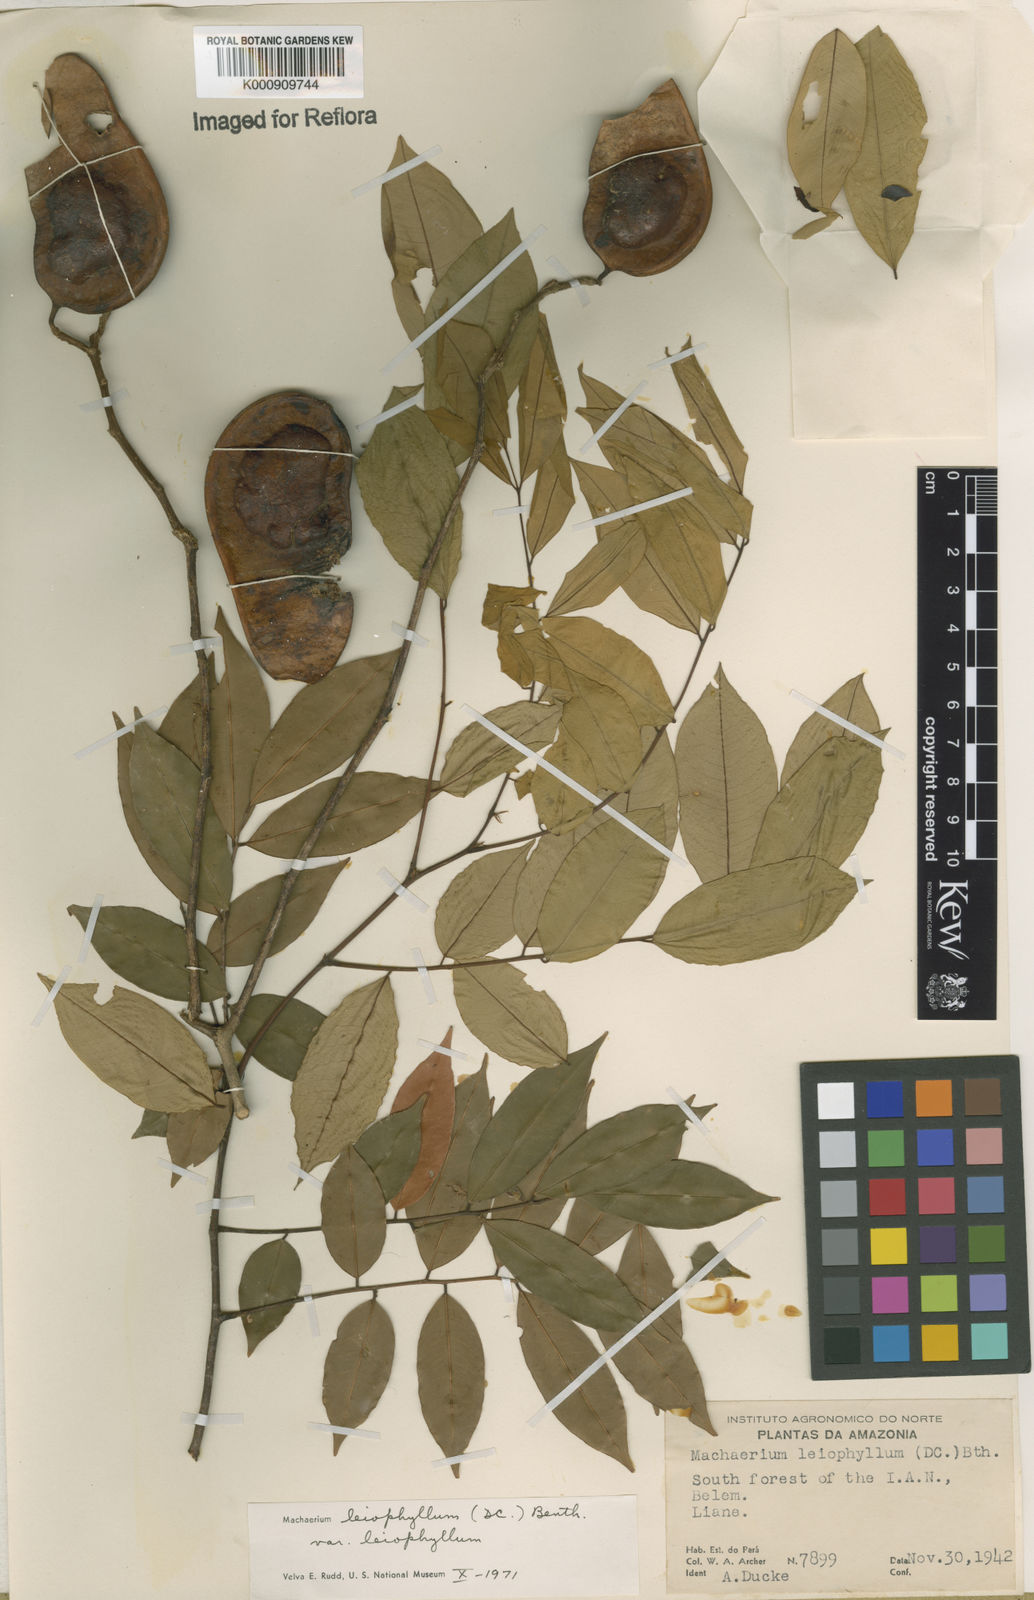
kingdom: Plantae
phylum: Tracheophyta
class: Magnoliopsida
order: Fabales
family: Fabaceae
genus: Machaerium
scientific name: Machaerium leiophyllum
